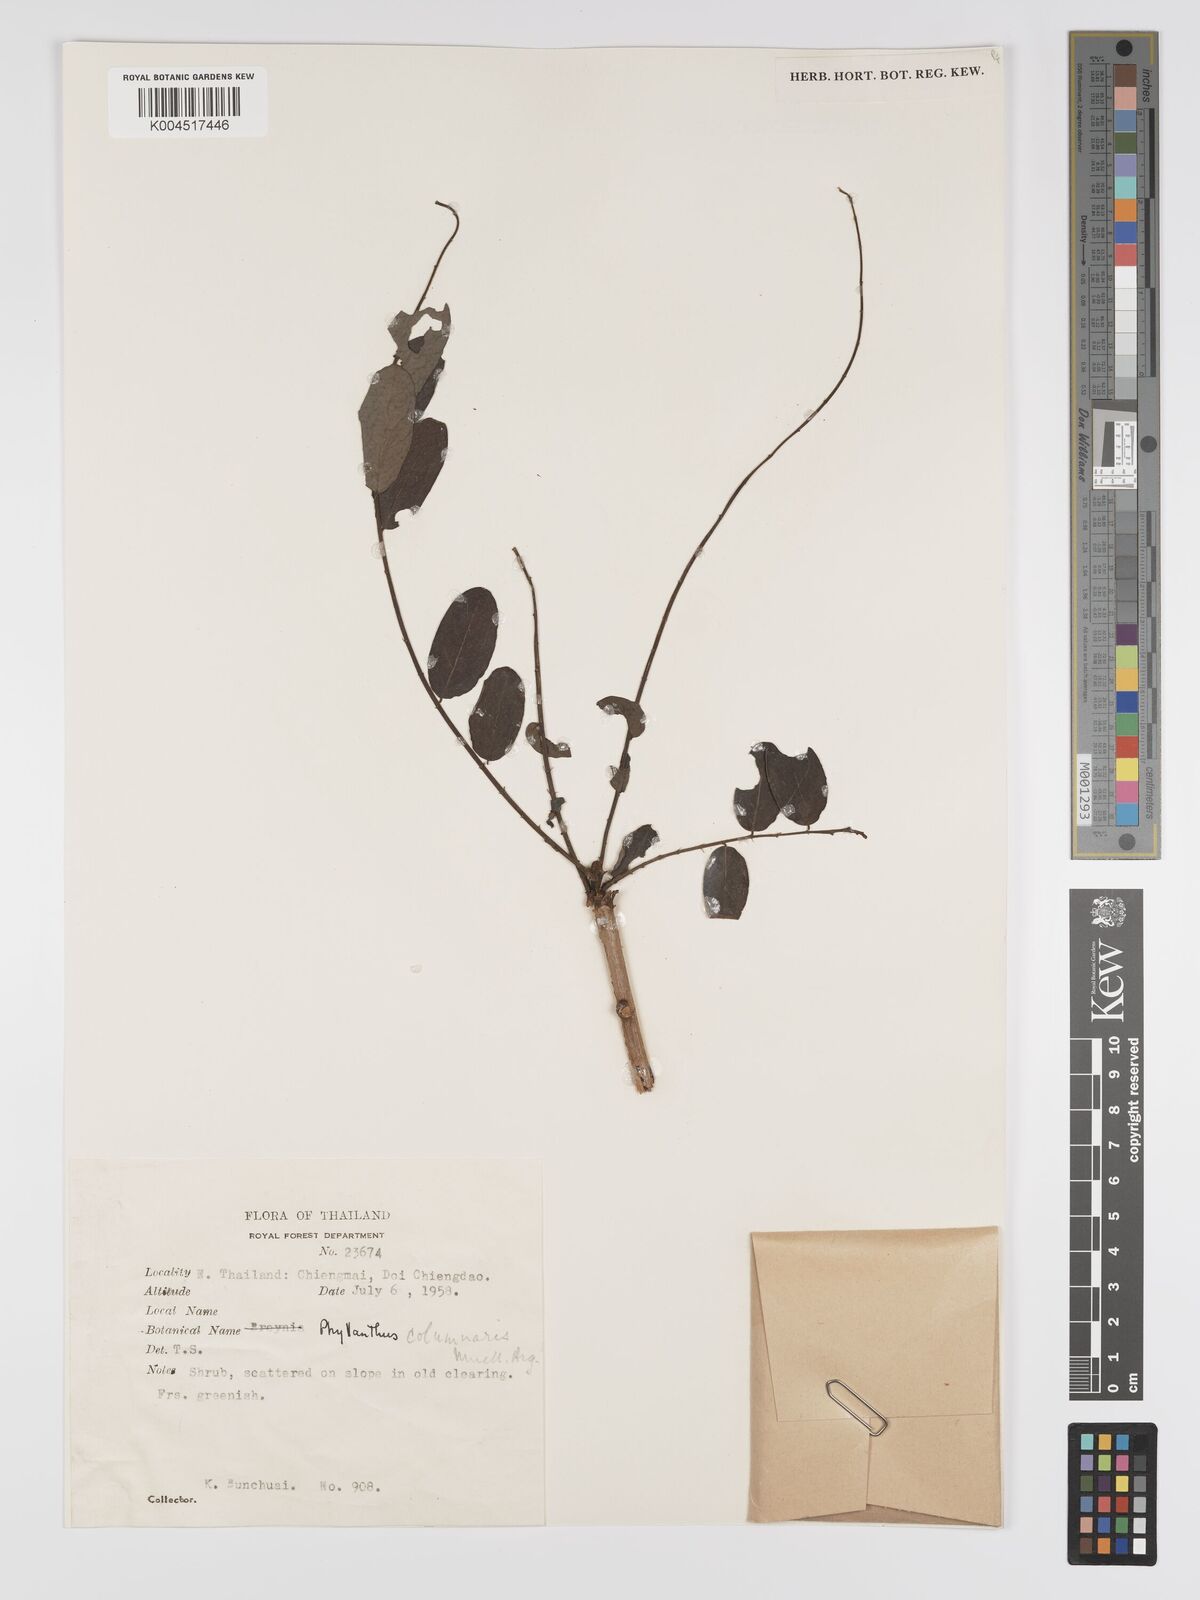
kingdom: Plantae
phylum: Tracheophyta
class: Magnoliopsida
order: Malpighiales
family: Phyllanthaceae
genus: Phyllanthus
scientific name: Phyllanthus
